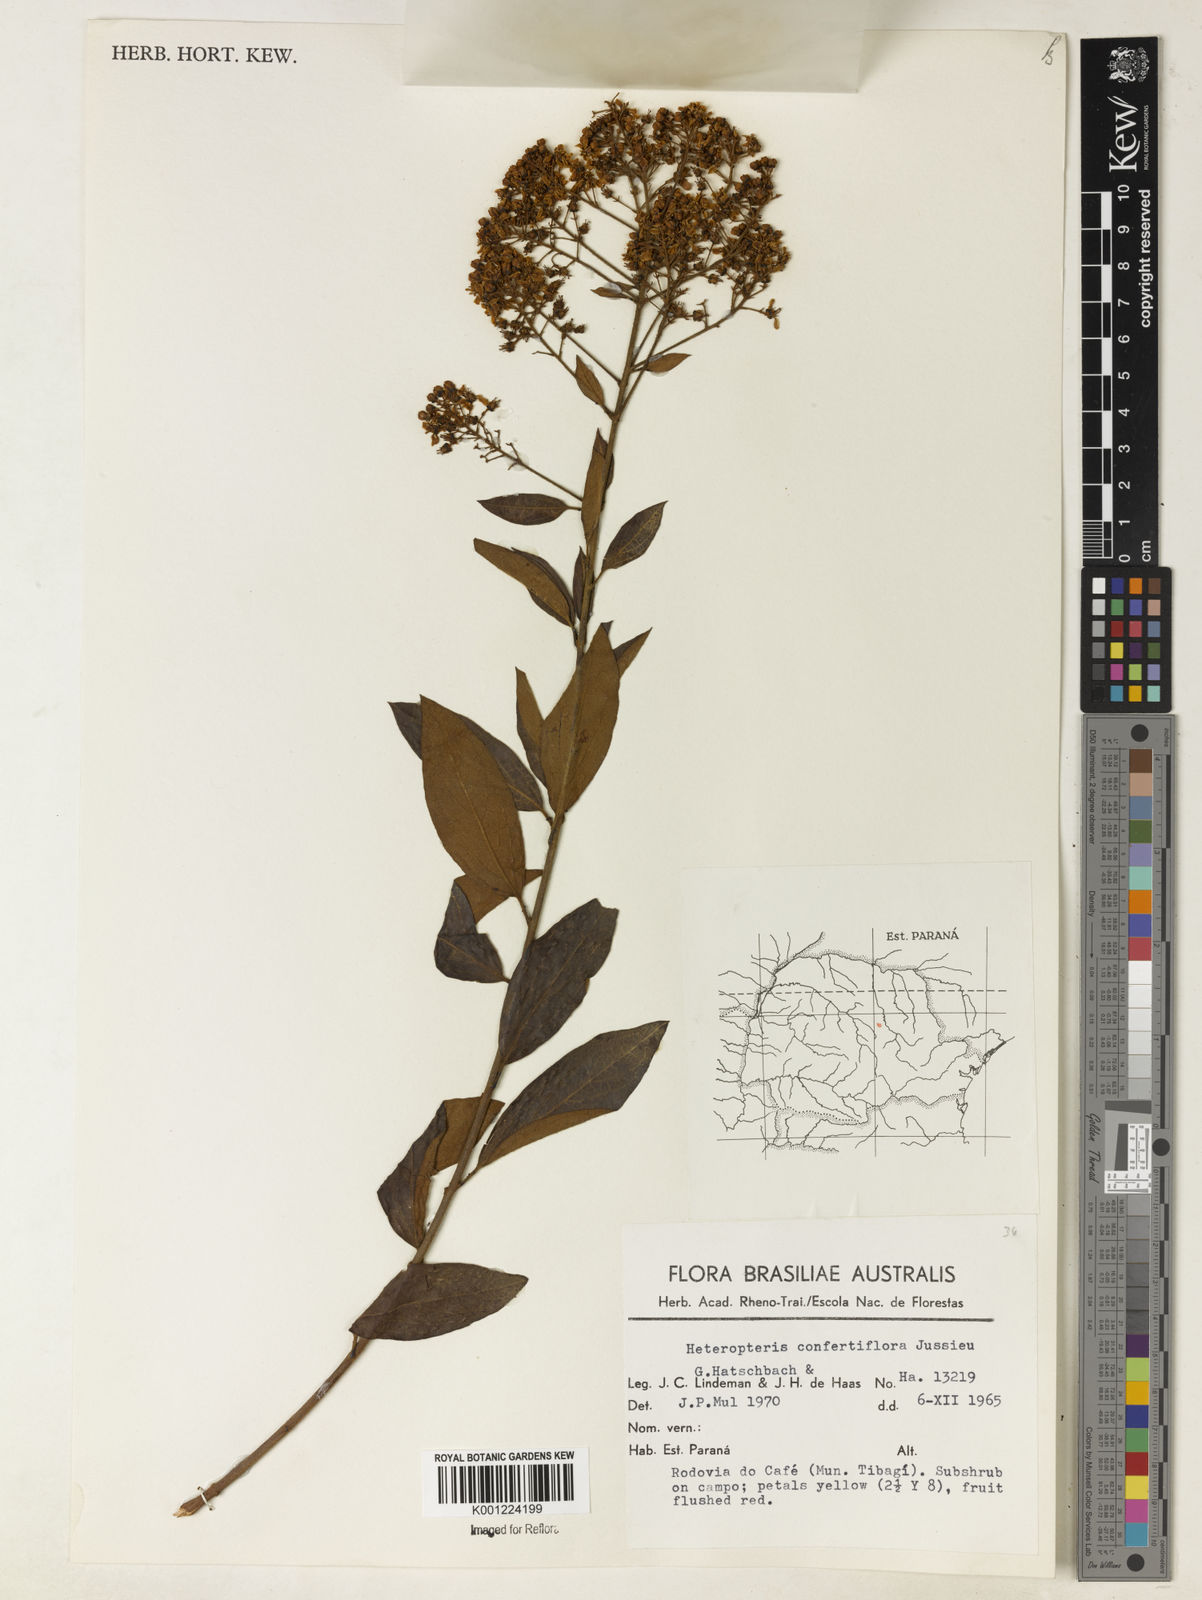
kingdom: Plantae
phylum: Tracheophyta
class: Magnoliopsida
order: Malpighiales
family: Malpighiaceae
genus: Heteropterys
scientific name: Heteropterys dusenii
